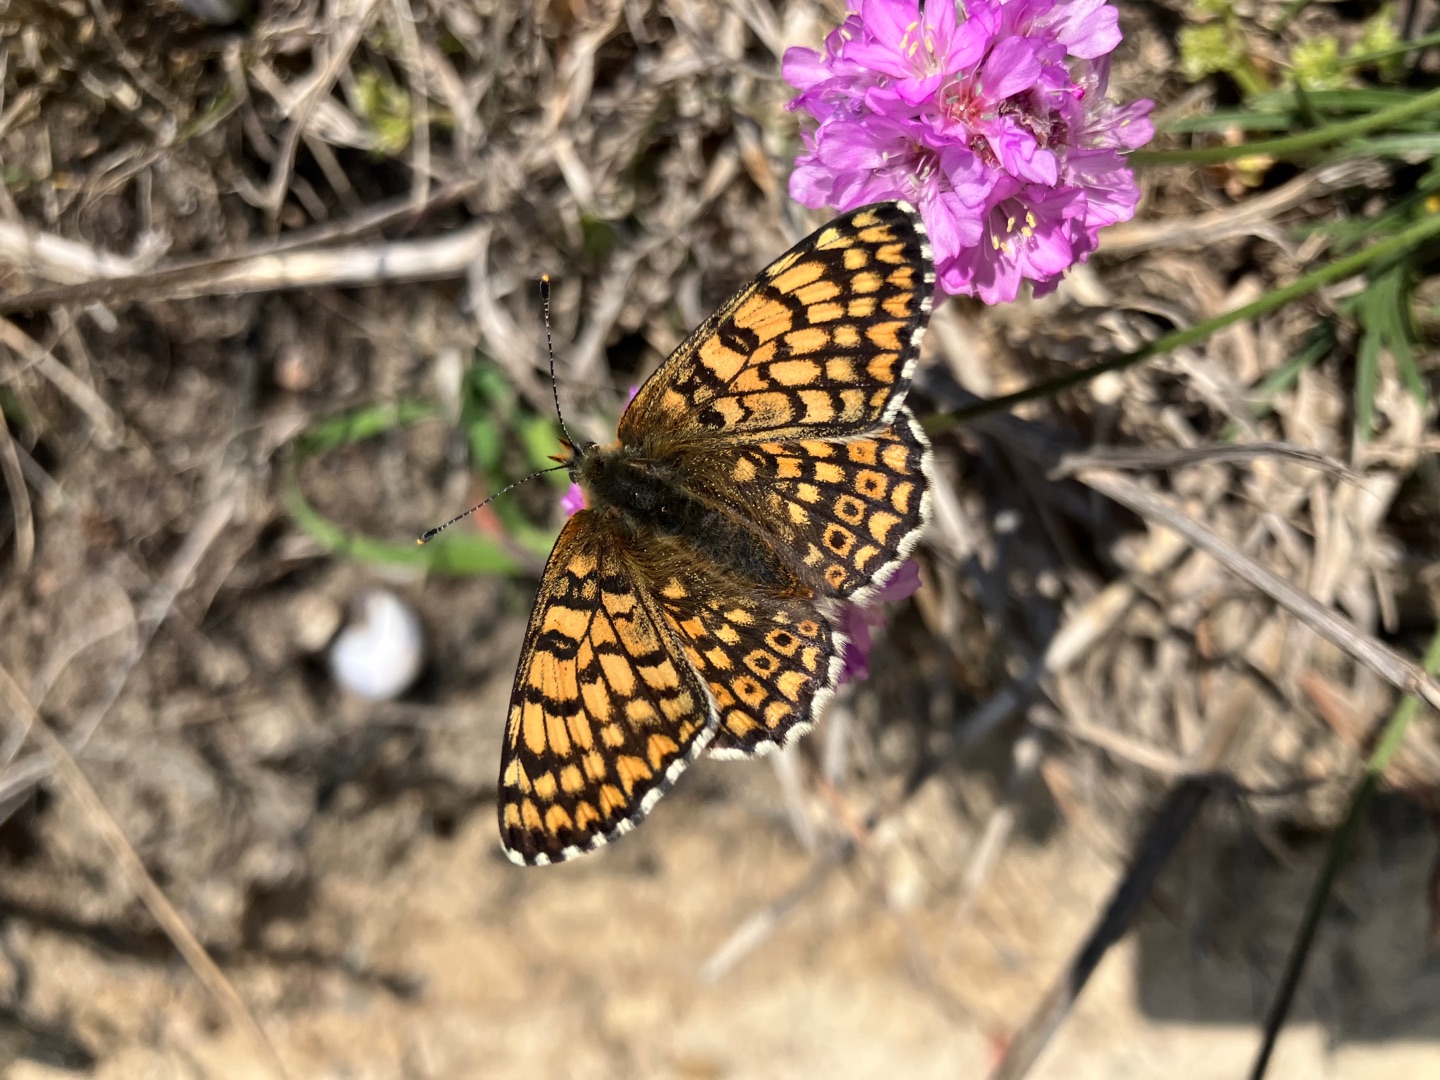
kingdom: Animalia
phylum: Arthropoda
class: Insecta
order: Lepidoptera
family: Nymphalidae
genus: Melitaea
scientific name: Melitaea cinxia
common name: Okkergul pletvinge
